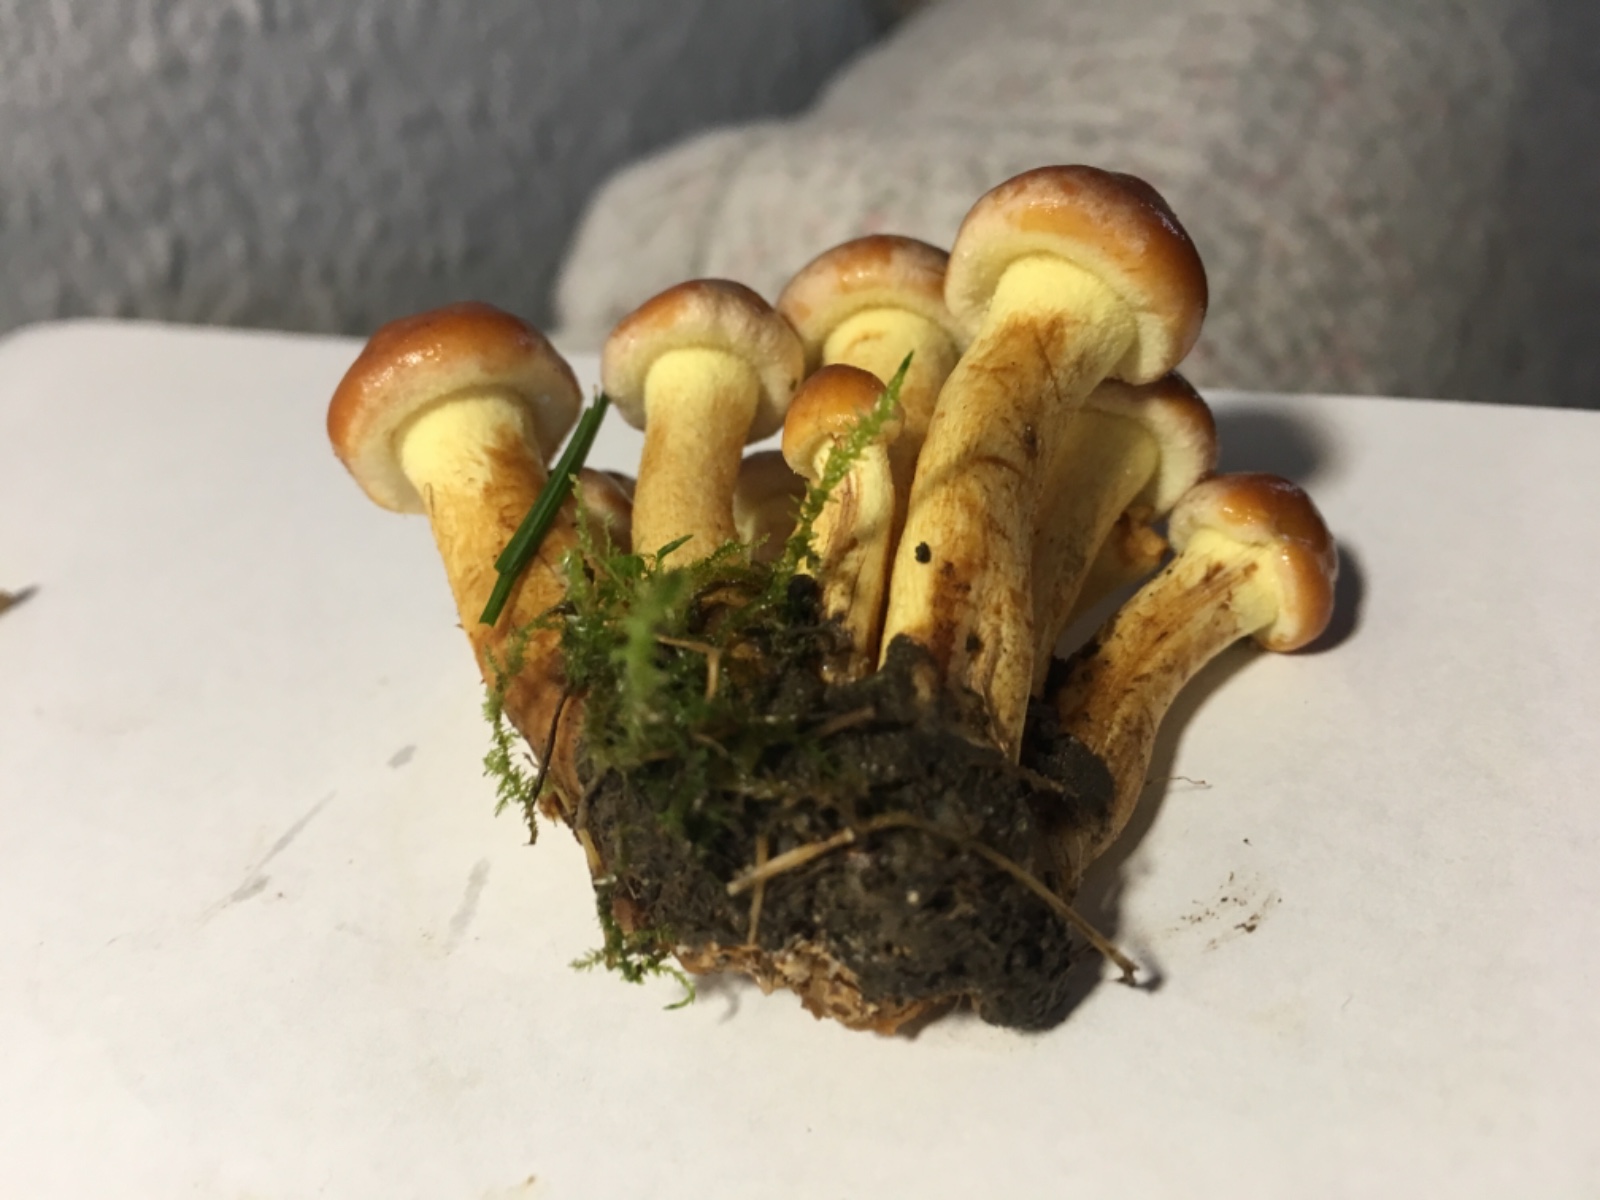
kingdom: Fungi
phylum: Basidiomycota
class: Agaricomycetes
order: Agaricales
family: Strophariaceae
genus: Hypholoma
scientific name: Hypholoma lateritium
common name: teglrød svovlhat
